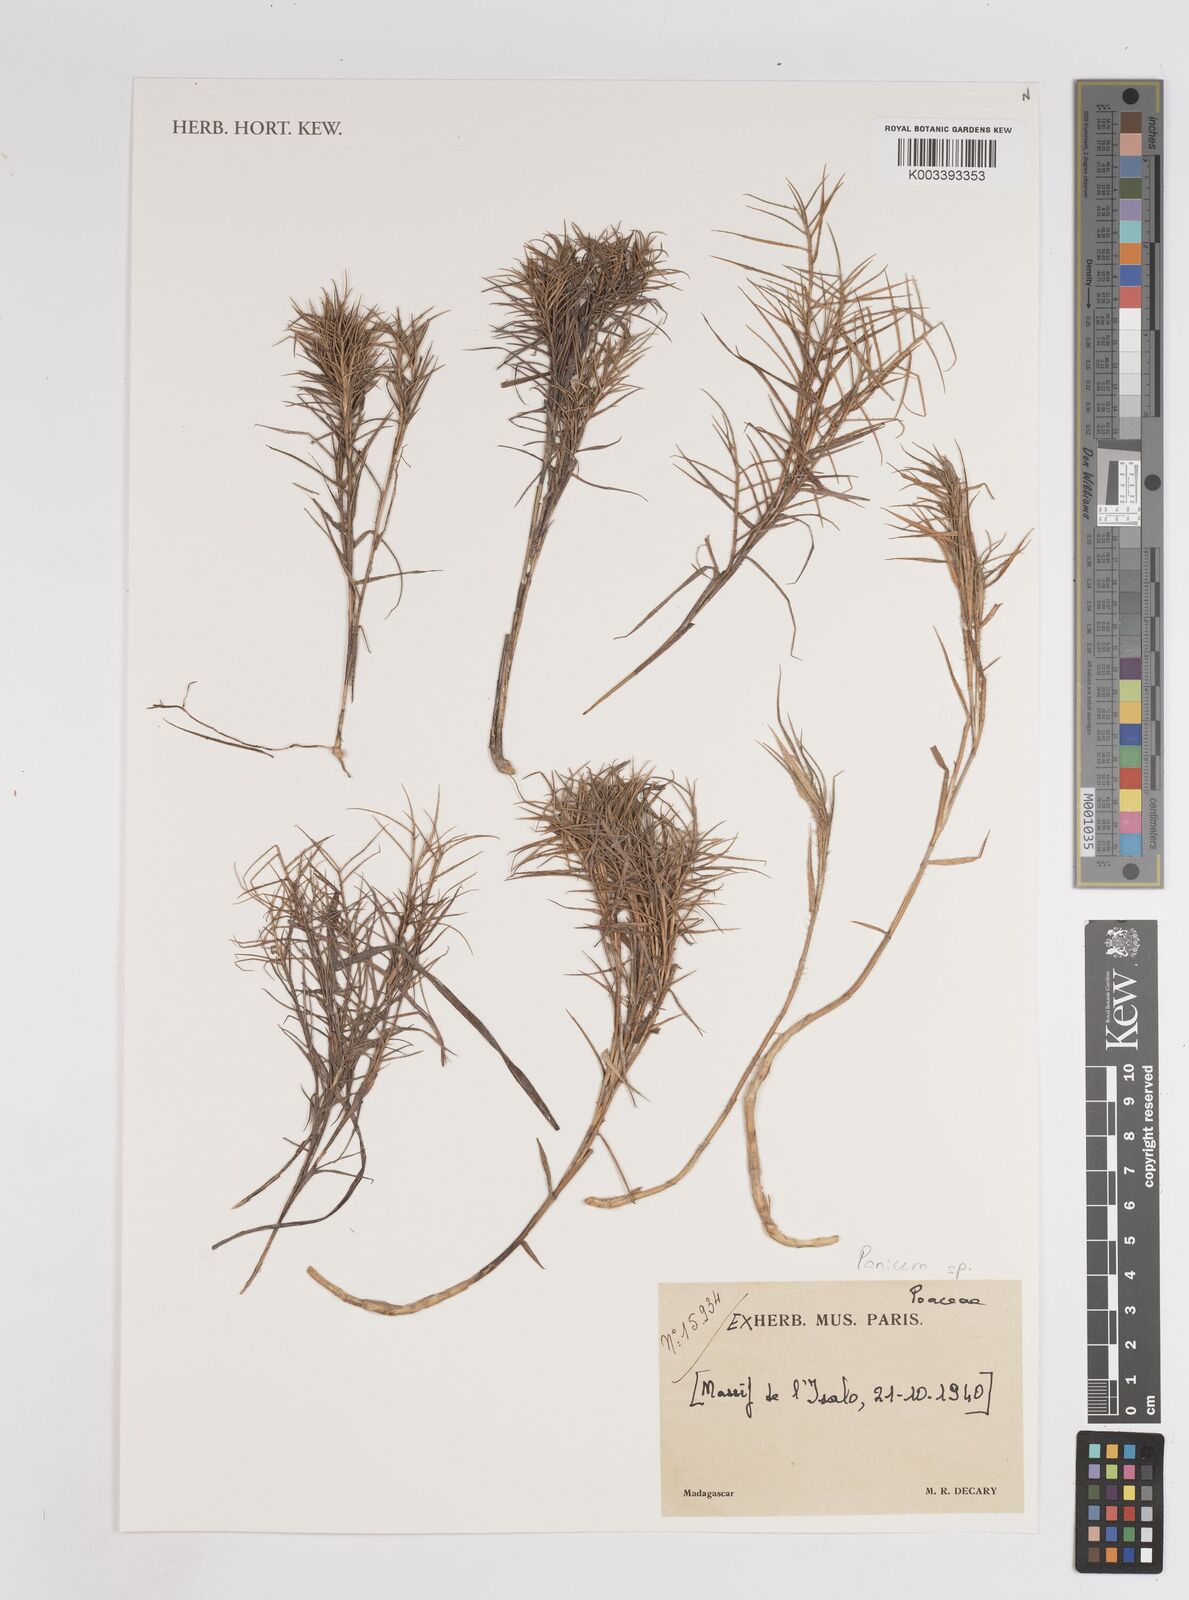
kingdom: Plantae
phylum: Tracheophyta
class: Liliopsida
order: Poales
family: Poaceae
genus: Panicum
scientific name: Panicum
